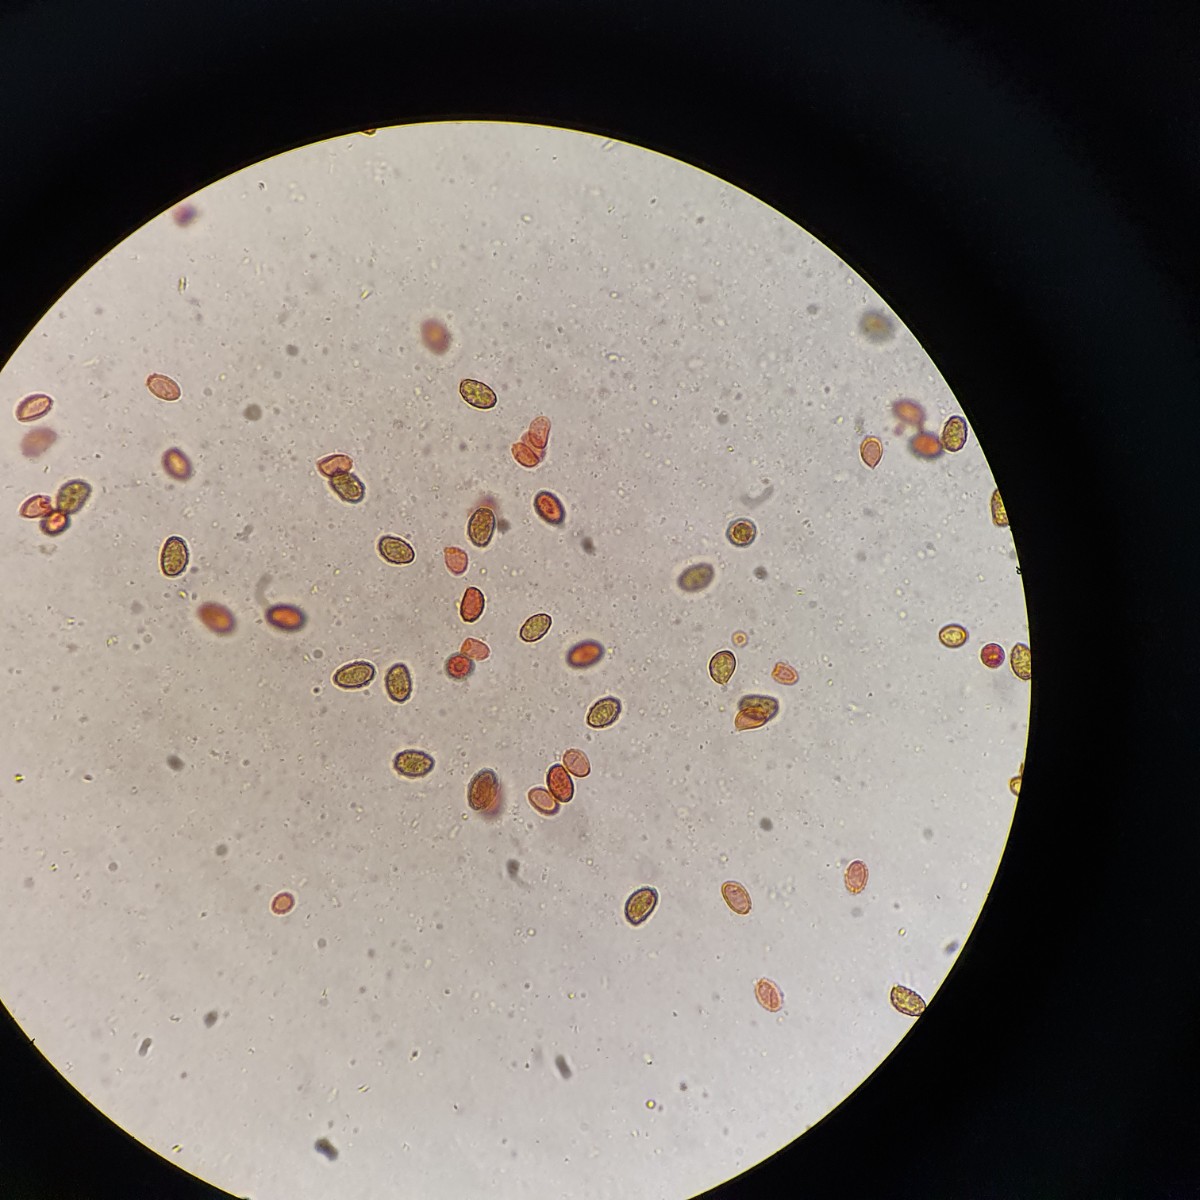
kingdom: Fungi
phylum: Basidiomycota
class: Agaricomycetes
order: Agaricales
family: Cortinariaceae
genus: Cortinarius
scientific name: Cortinarius
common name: gulbladet slørhat
